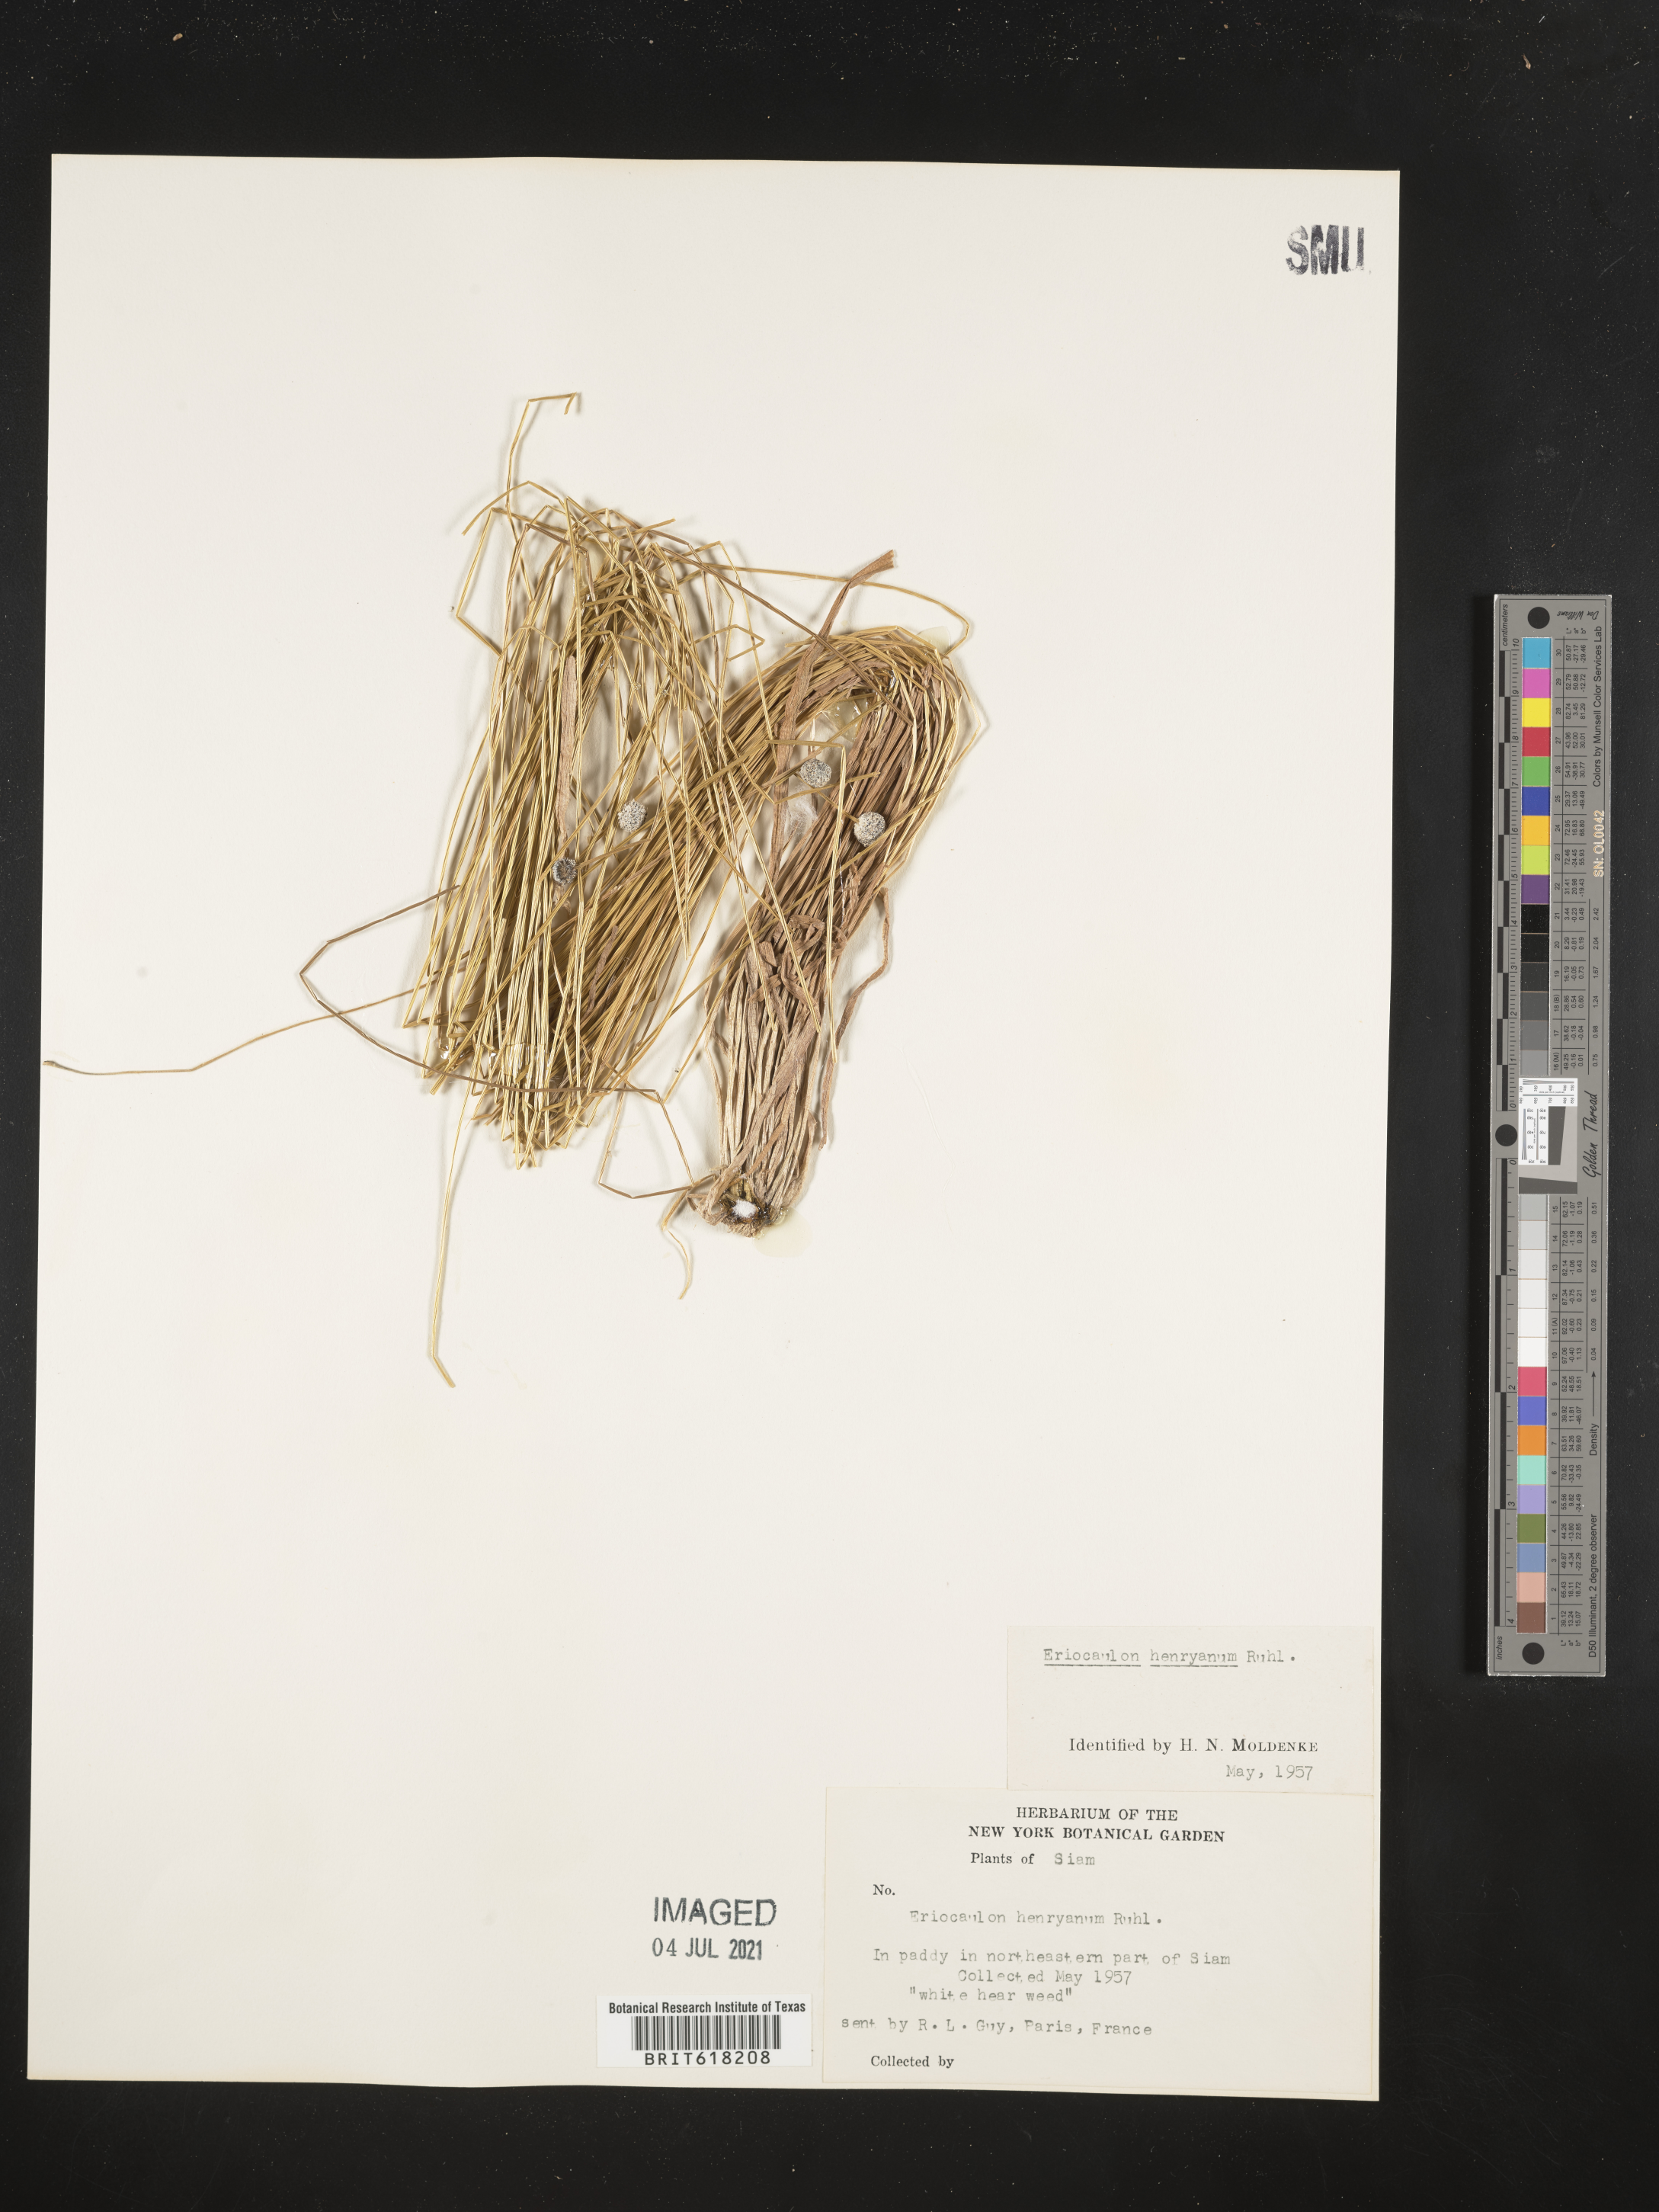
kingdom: Plantae
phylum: Tracheophyta
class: Liliopsida
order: Poales
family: Eriocaulaceae
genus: Eriocaulon
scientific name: Eriocaulon henryanum
